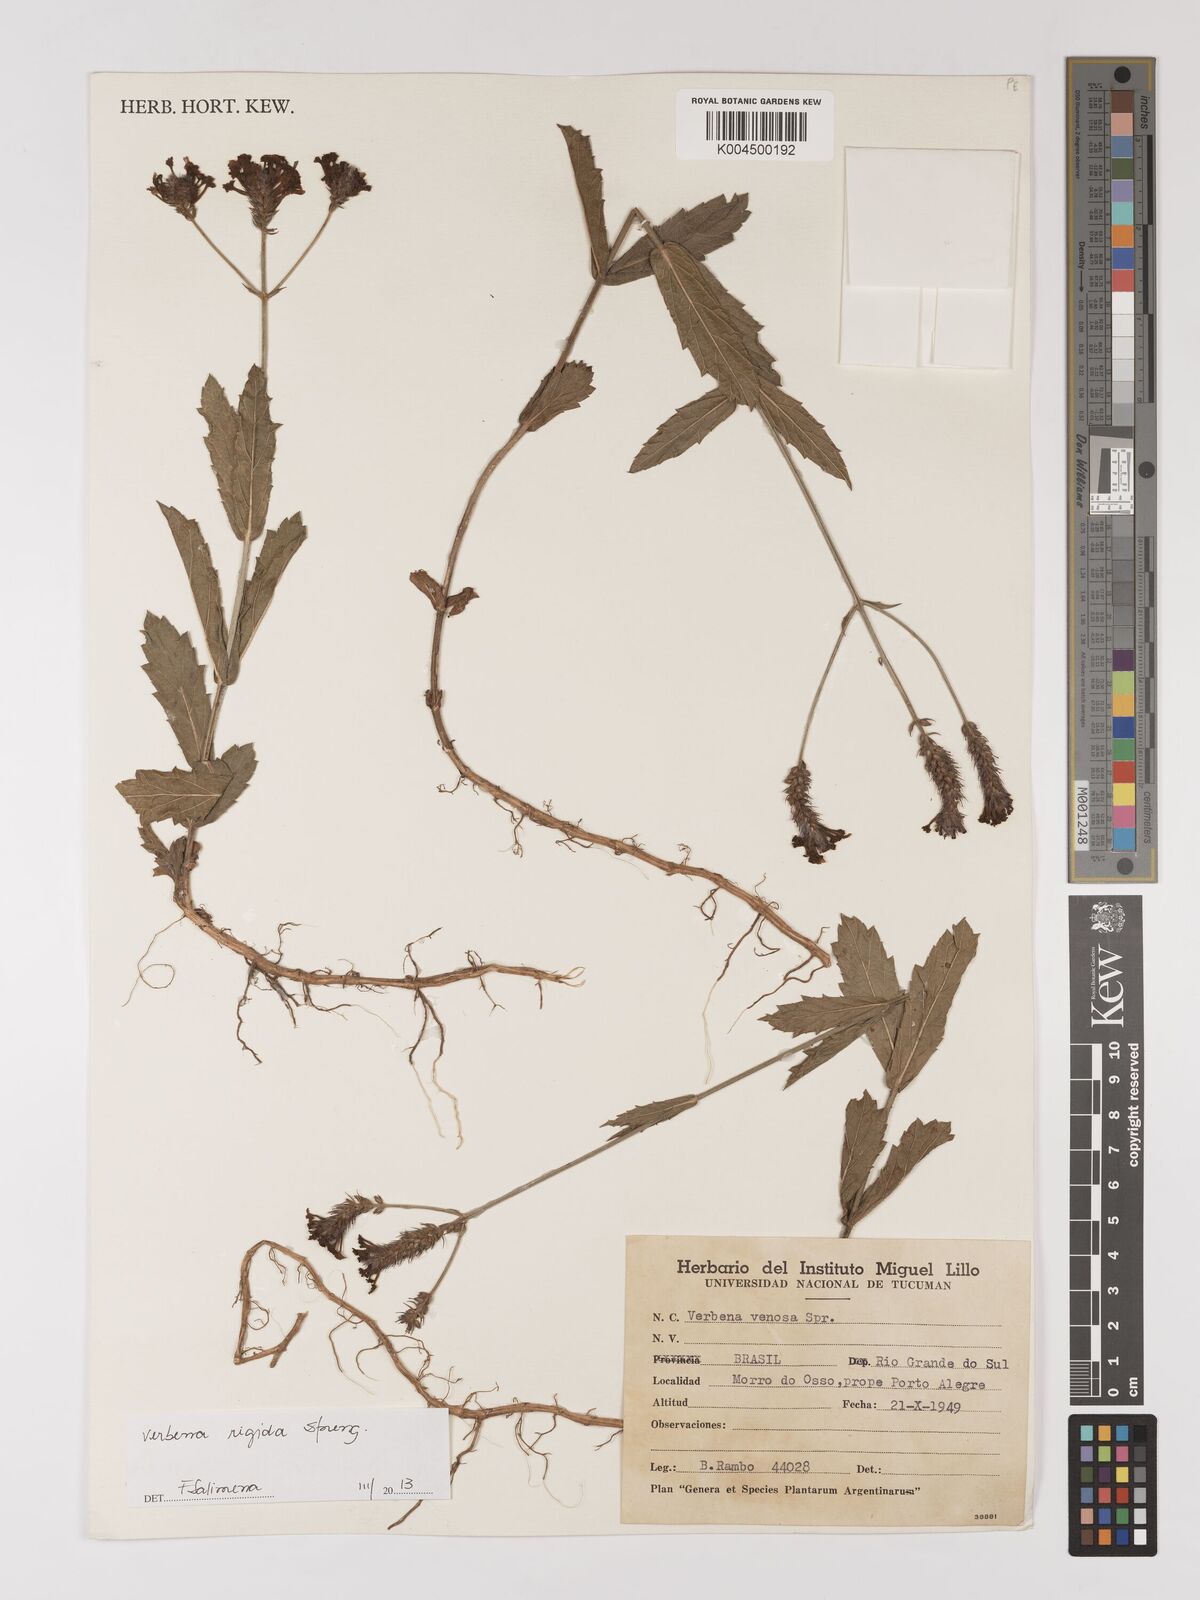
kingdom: Plantae
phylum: Tracheophyta
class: Magnoliopsida
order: Lamiales
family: Verbenaceae
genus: Verbena
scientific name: Verbena rigida
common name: Slender vervain
